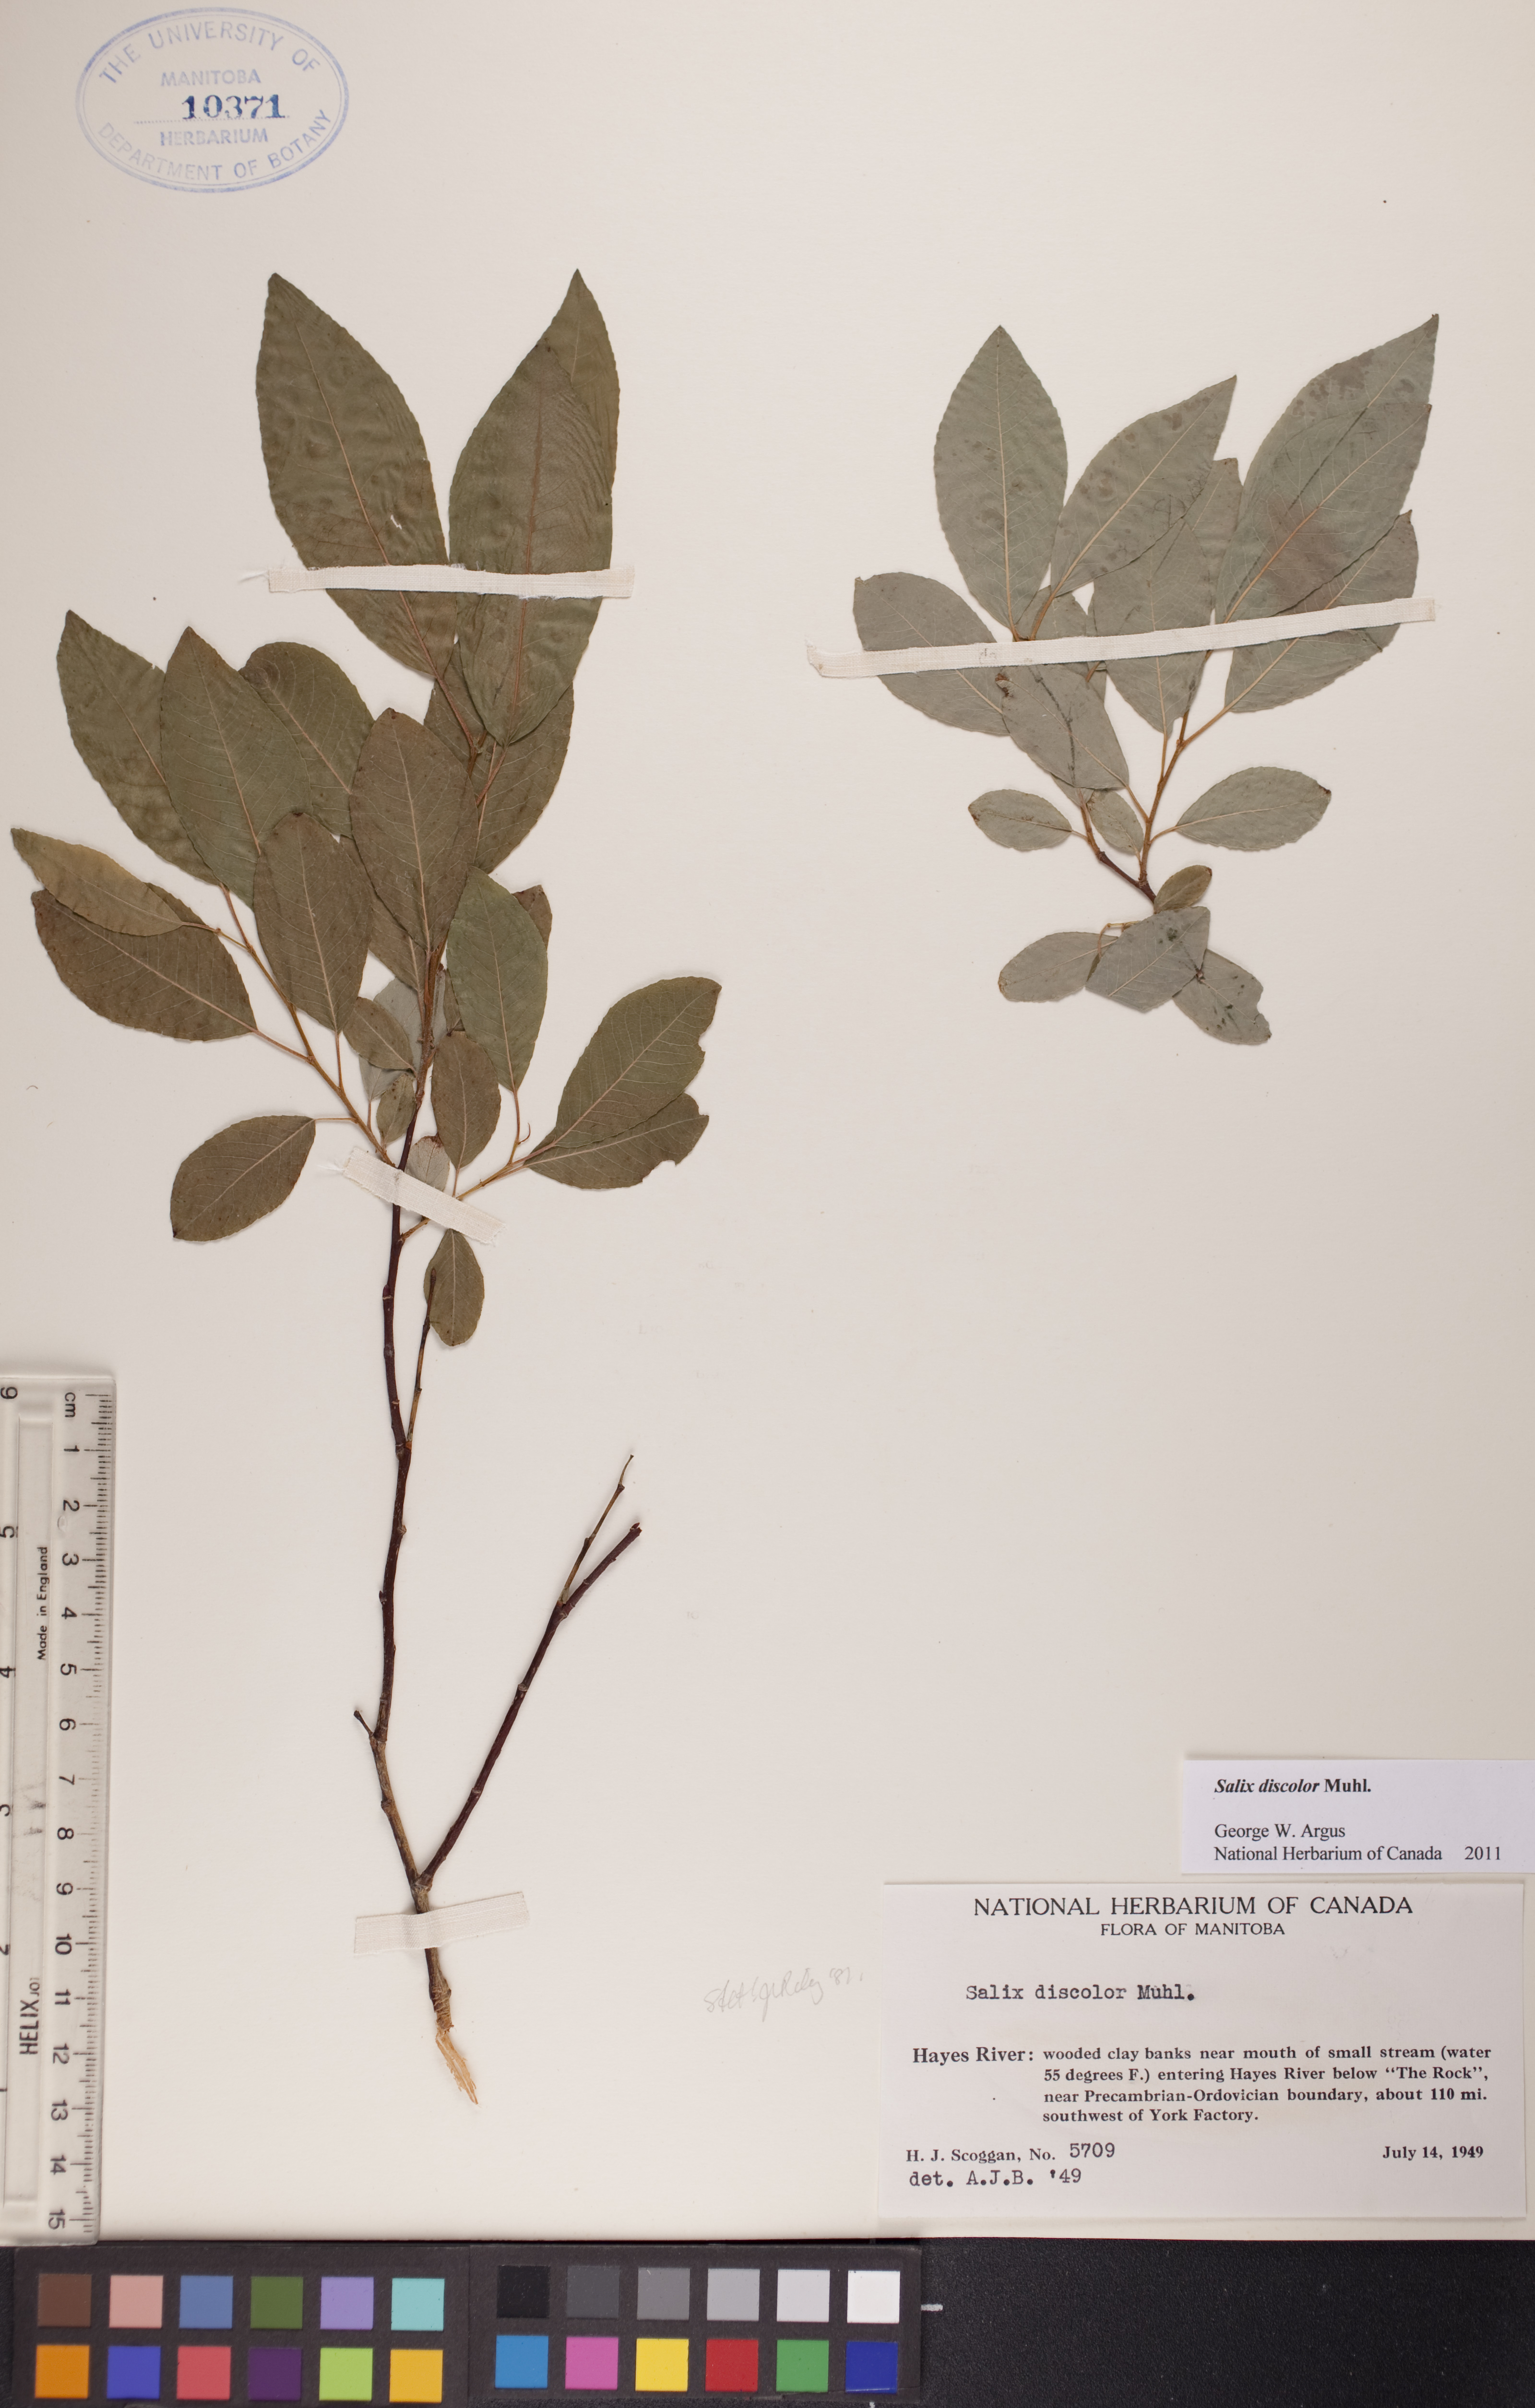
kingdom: Plantae
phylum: Tracheophyta
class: Magnoliopsida
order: Malpighiales
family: Salicaceae
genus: Salix
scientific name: Salix discolor
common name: Glaucous willow
